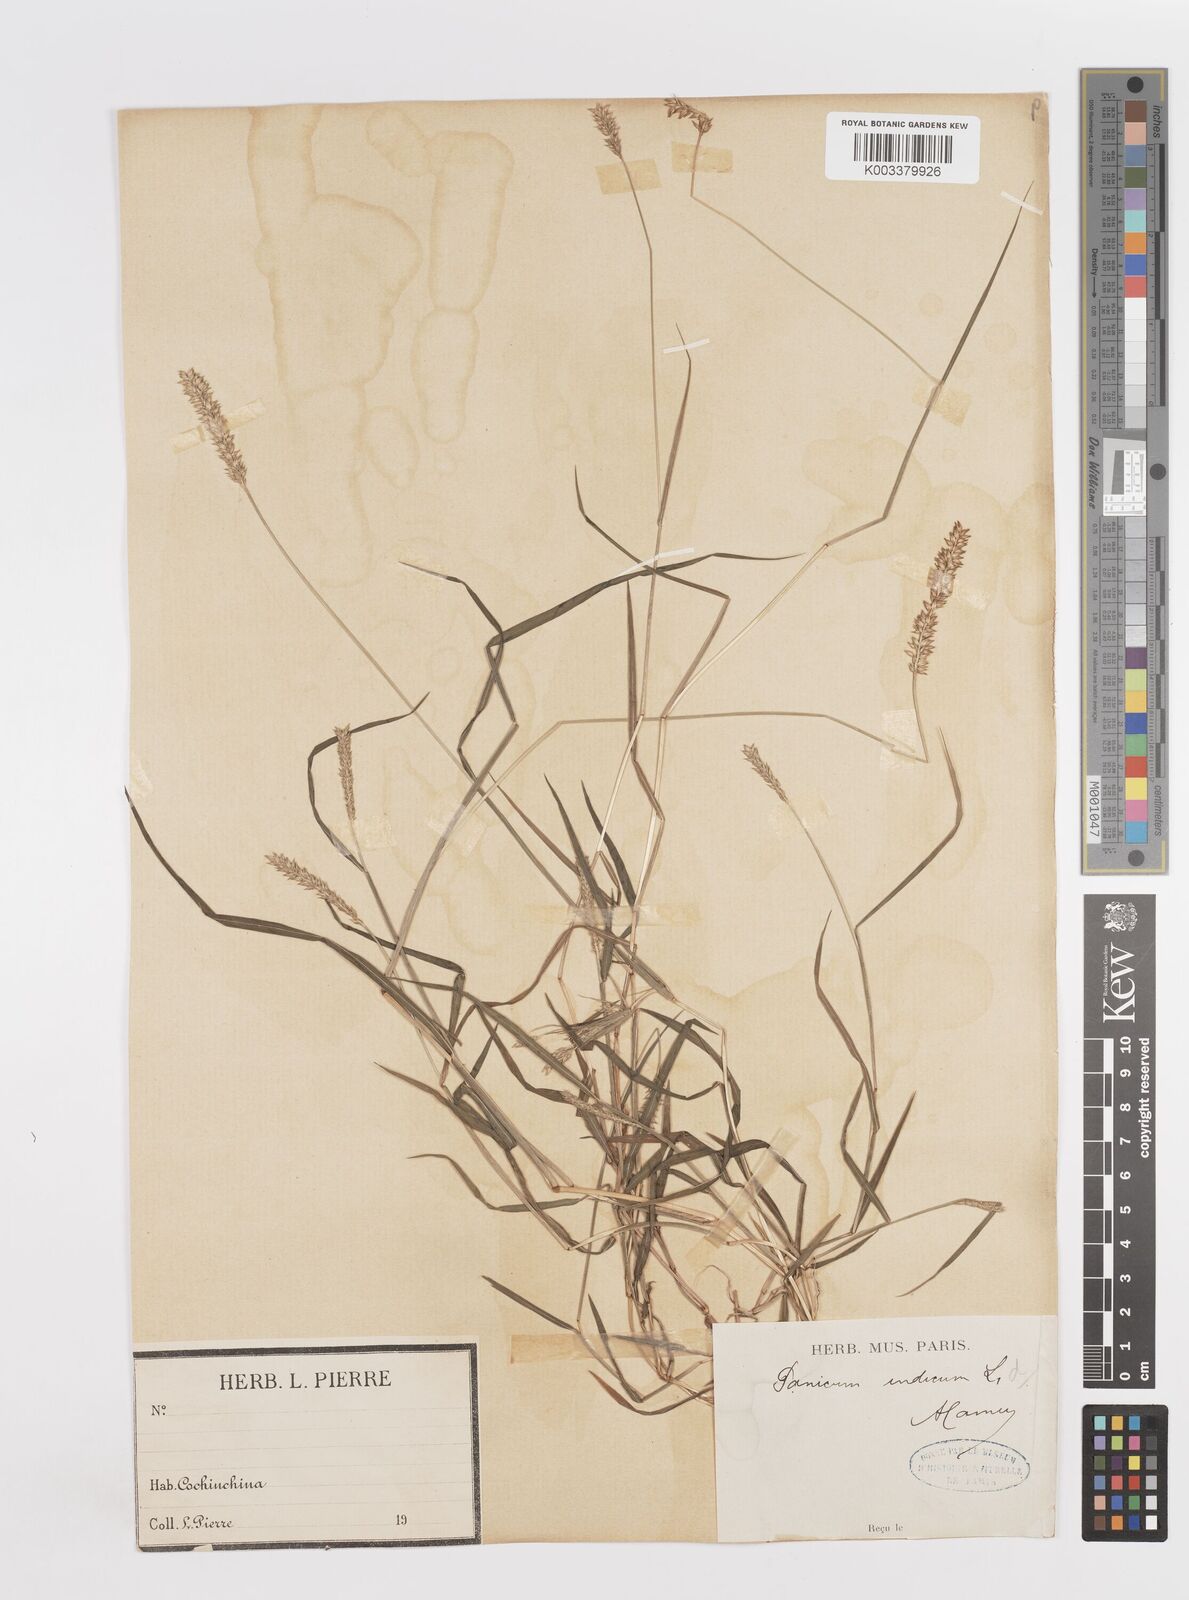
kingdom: Plantae
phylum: Tracheophyta
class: Liliopsida
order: Poales
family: Poaceae
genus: Sacciolepis
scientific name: Sacciolepis indica
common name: Glenwoodgrass
